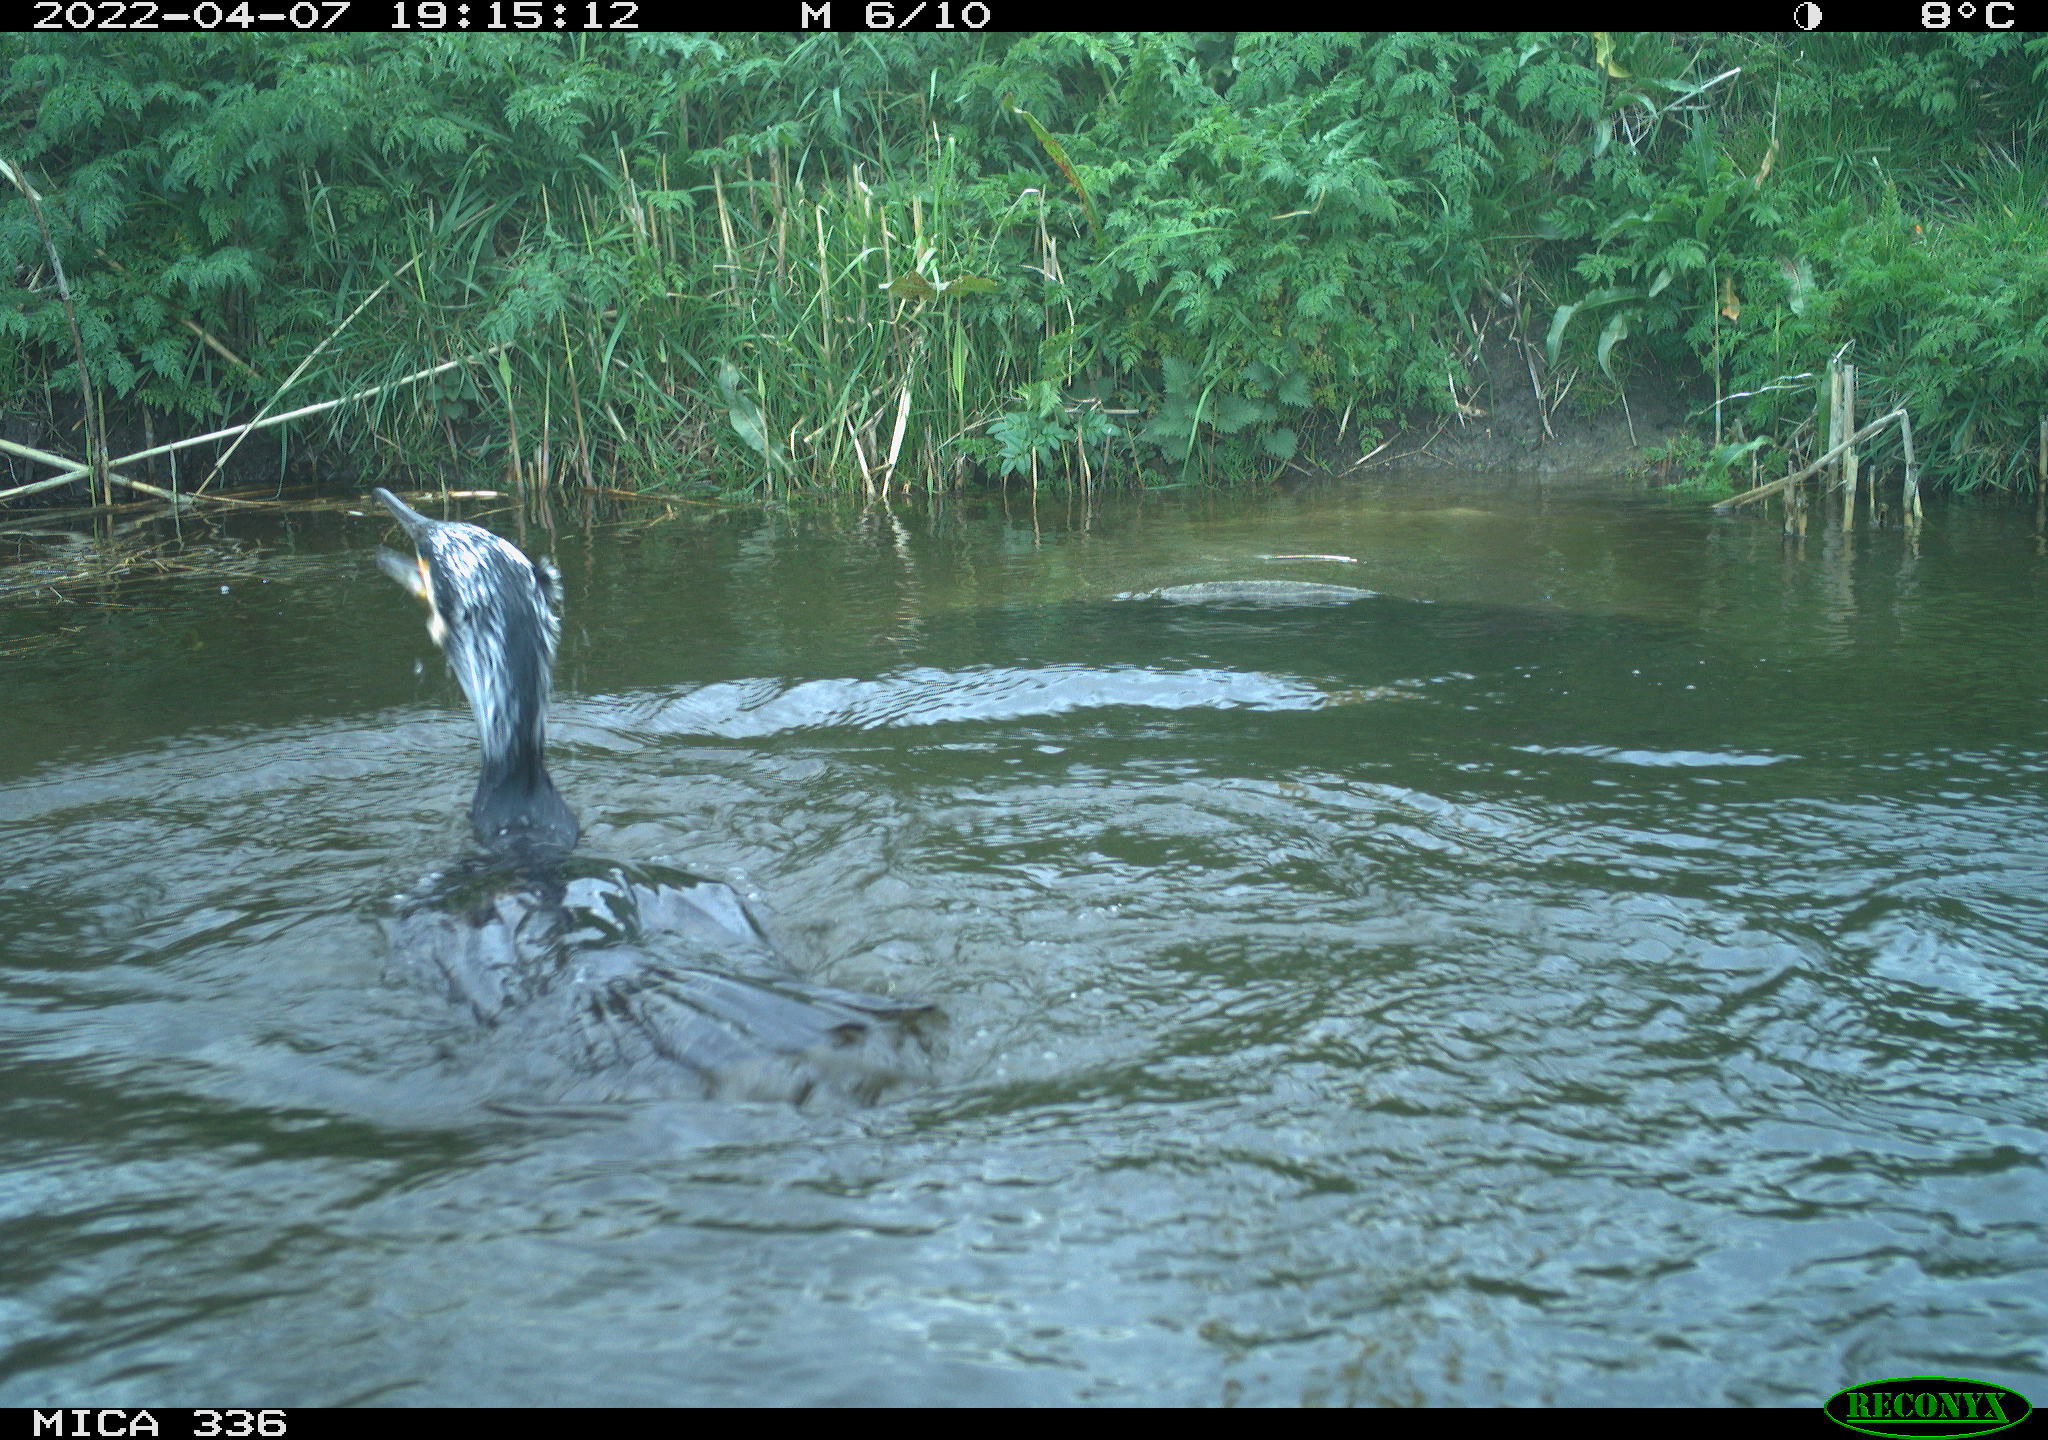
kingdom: Animalia
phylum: Chordata
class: Aves
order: Suliformes
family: Phalacrocoracidae
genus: Phalacrocorax
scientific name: Phalacrocorax carbo
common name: Great cormorant
